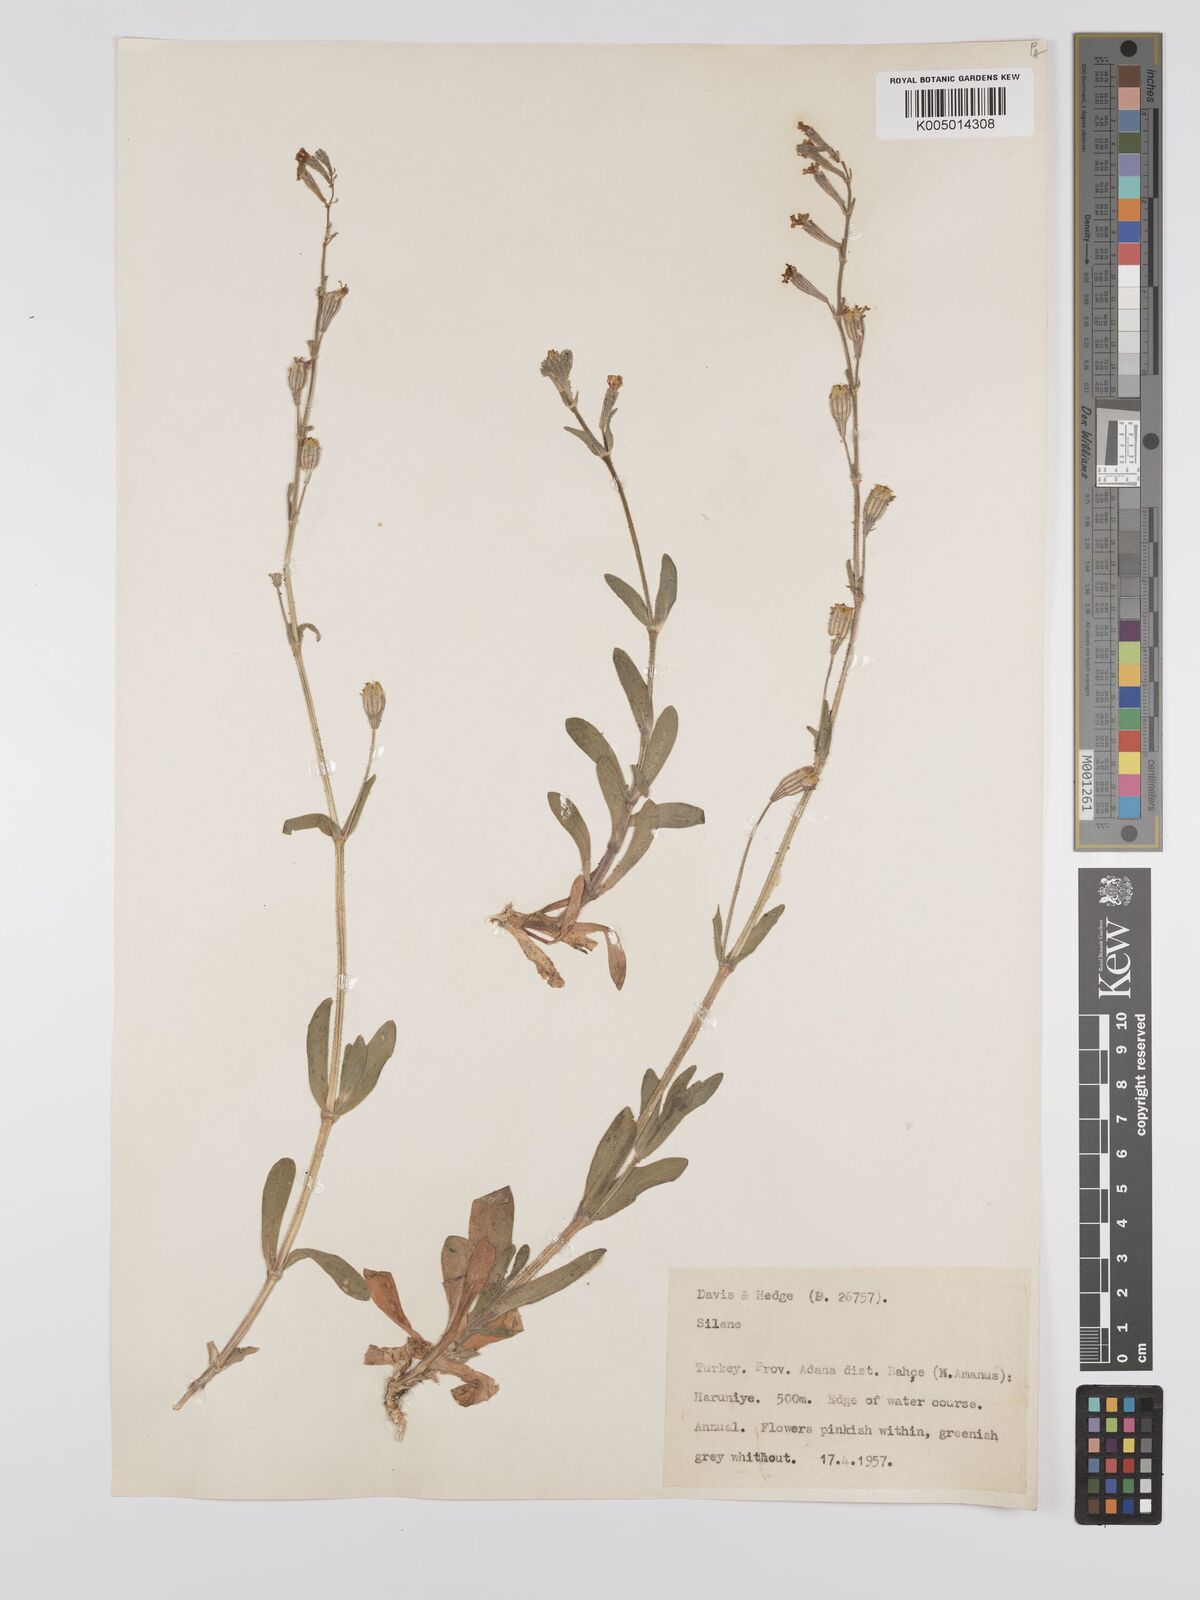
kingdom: Plantae
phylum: Tracheophyta
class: Magnoliopsida
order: Caryophyllales
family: Caryophyllaceae
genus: Silene
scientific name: Silene
